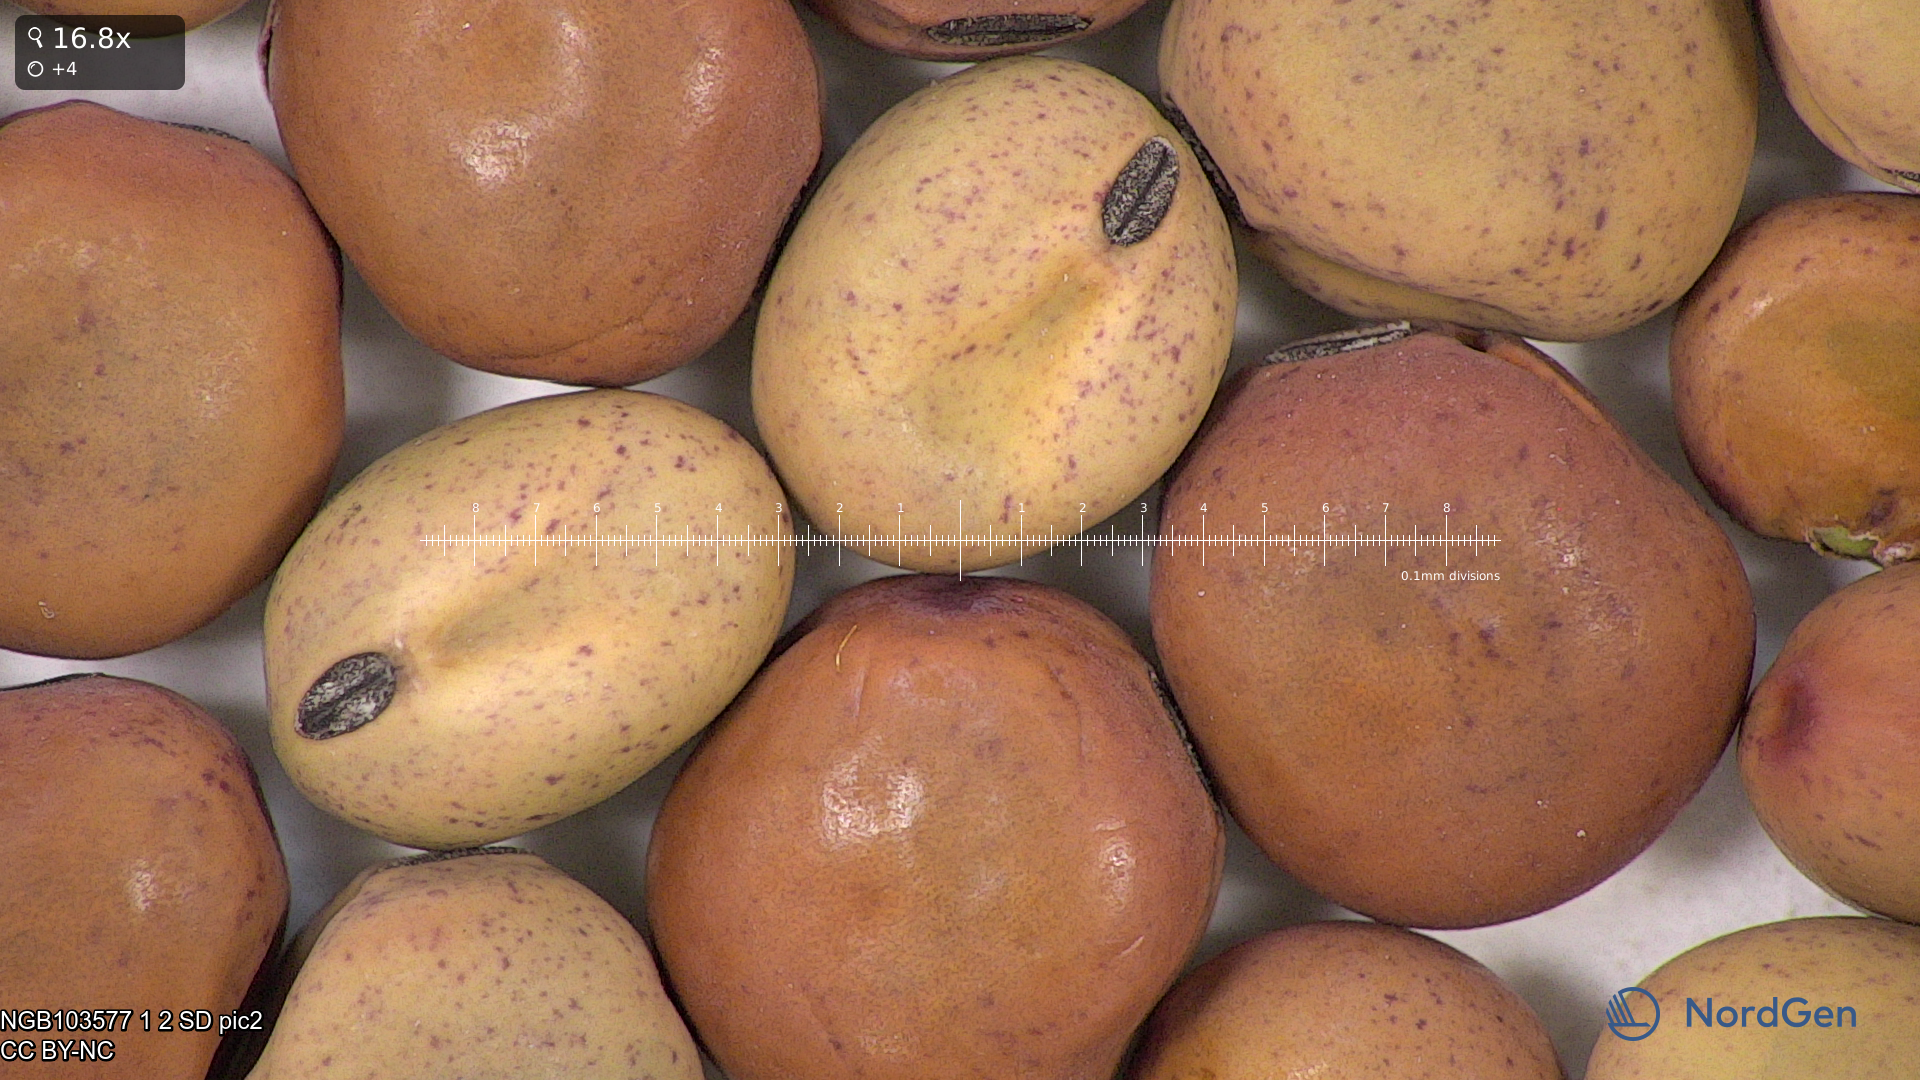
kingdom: Plantae
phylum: Tracheophyta
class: Magnoliopsida
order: Fabales
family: Fabaceae
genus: Lathyrus
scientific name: Lathyrus oleraceus
